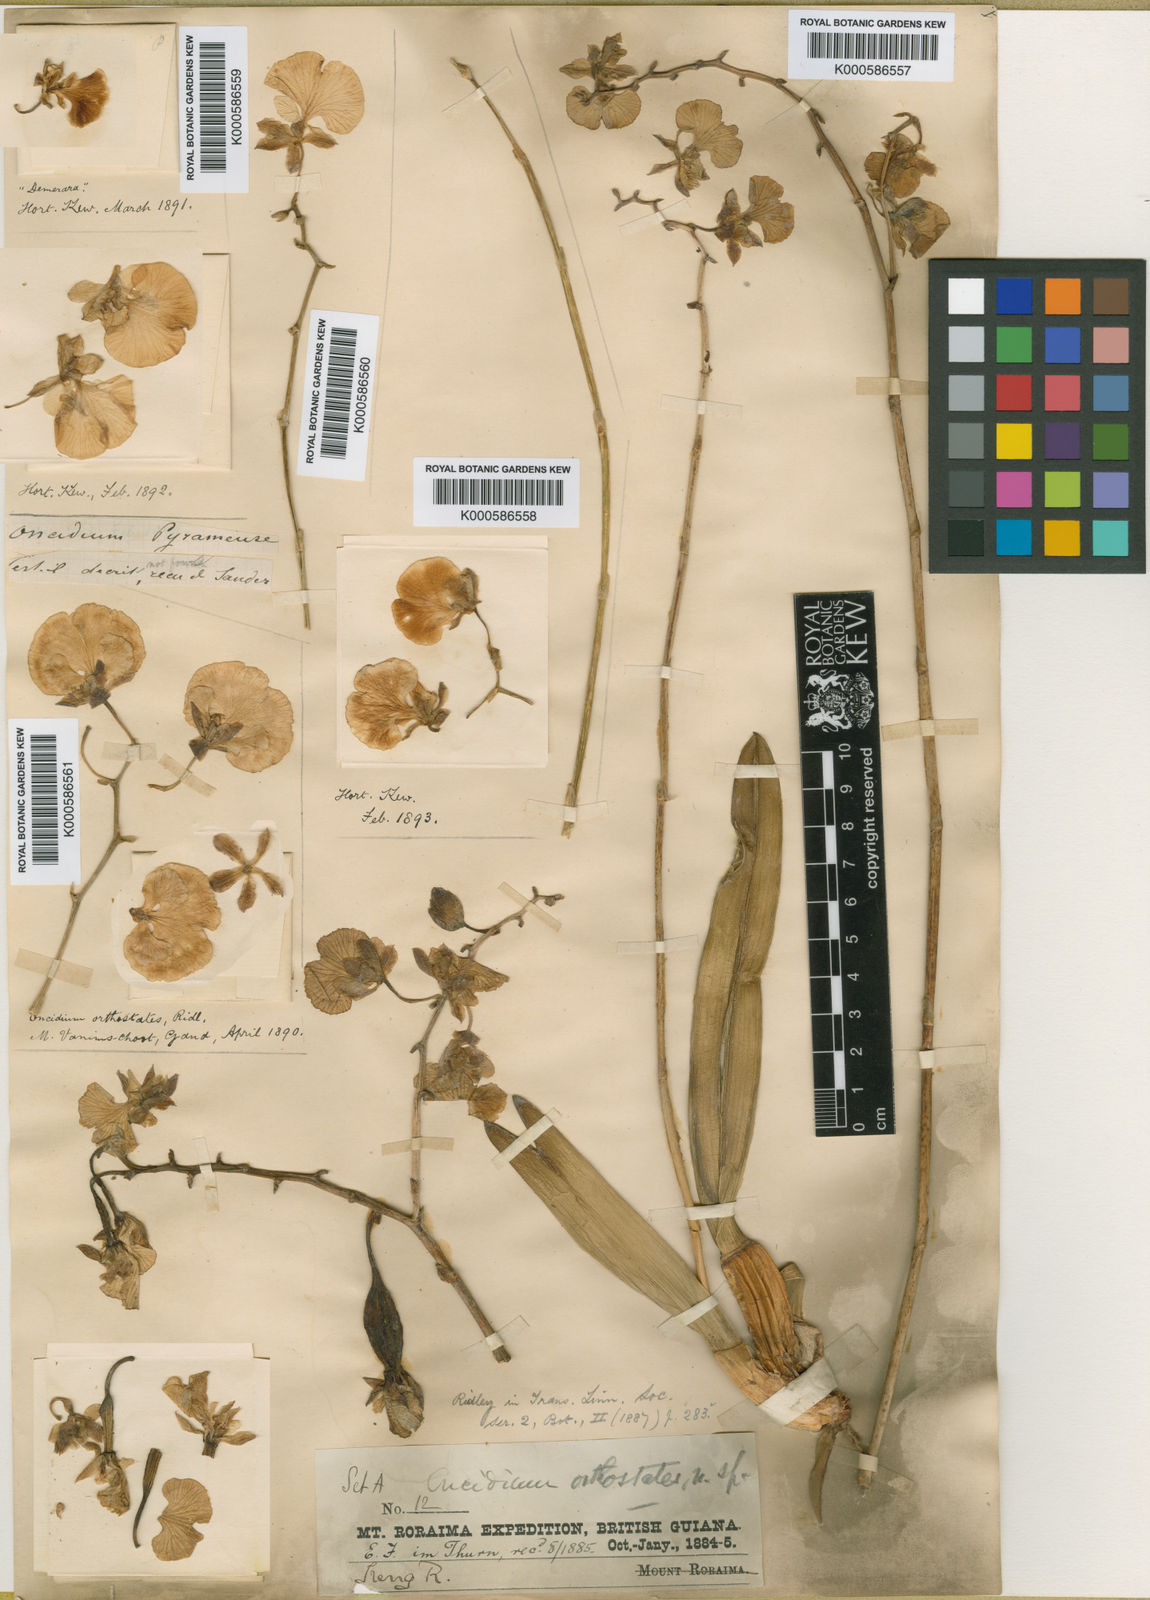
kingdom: Plantae
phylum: Tracheophyta
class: Liliopsida
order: Asparagales
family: Orchidaceae
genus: Nohawilliamsia
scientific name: Nohawilliamsia pirarensis
